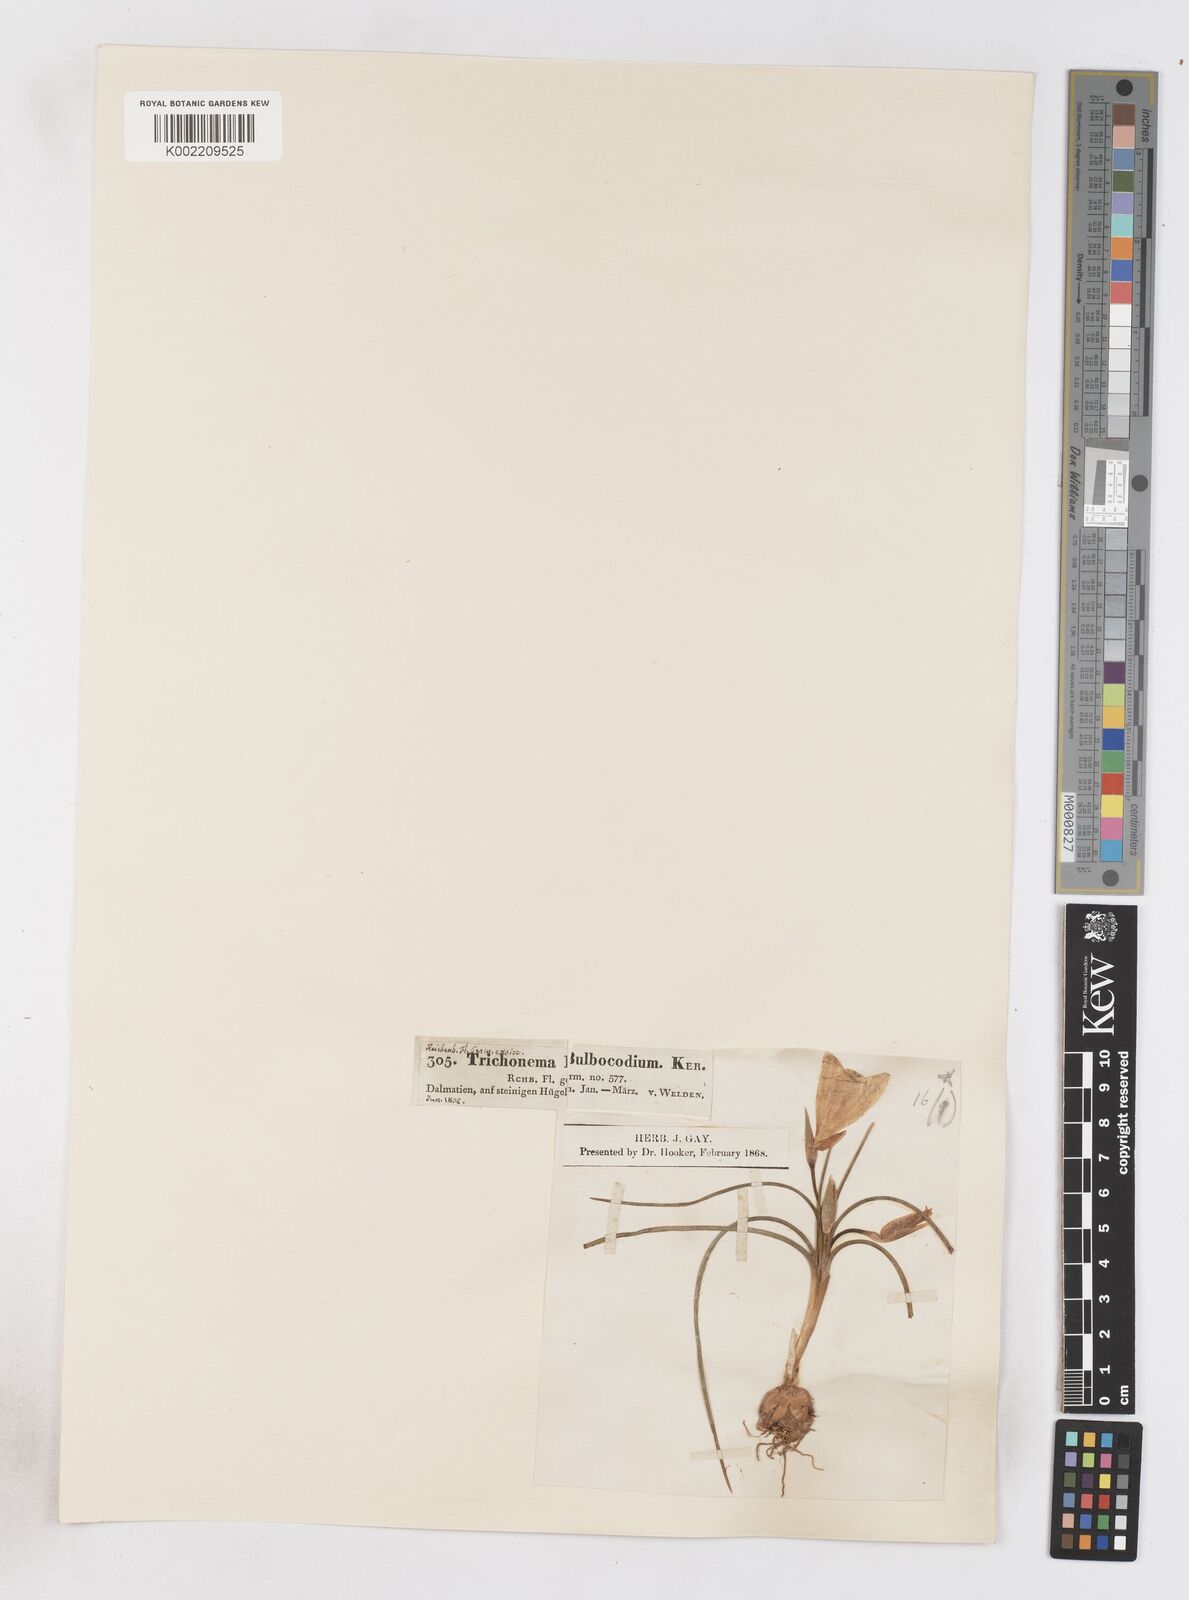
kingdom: Plantae
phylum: Tracheophyta
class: Liliopsida
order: Asparagales
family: Iridaceae
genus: Romulea
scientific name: Romulea bulbocodium
